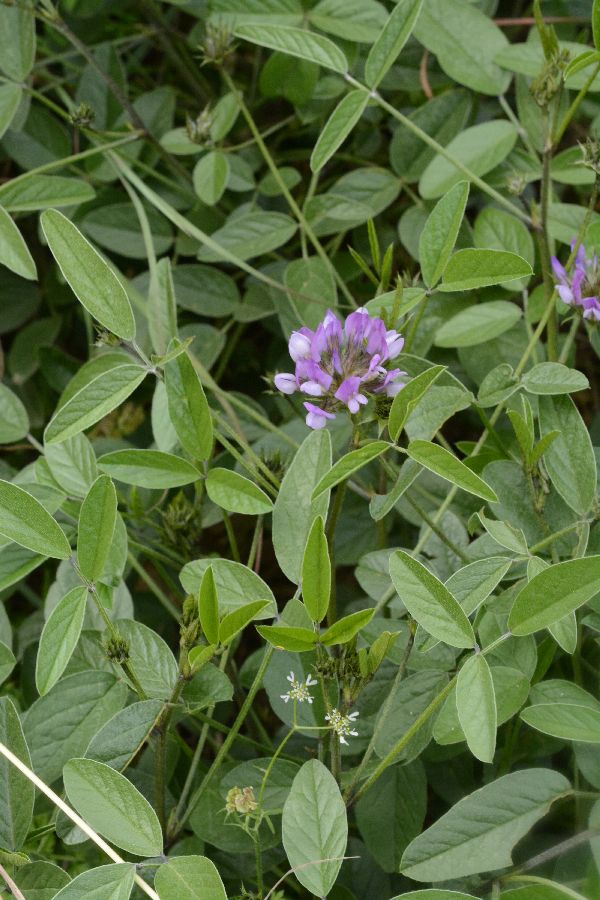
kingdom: Plantae
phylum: Tracheophyta
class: Magnoliopsida
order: Fabales
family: Fabaceae
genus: Bituminaria
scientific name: Bituminaria bituminosa
